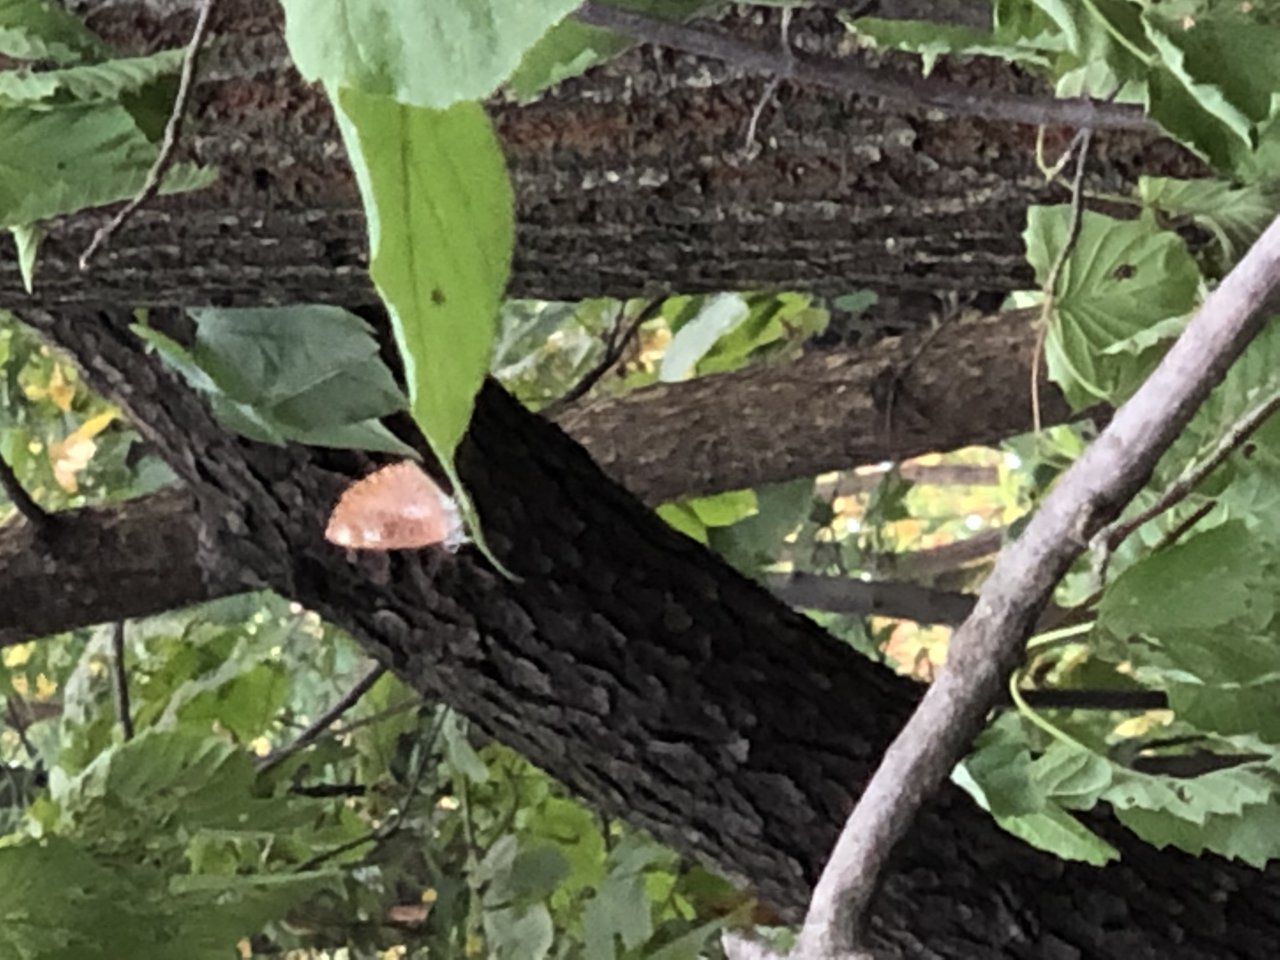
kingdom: Animalia
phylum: Arthropoda
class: Insecta
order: Lepidoptera
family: Lycaenidae
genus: Feniseca
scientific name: Feniseca tarquinius
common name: Harvester
